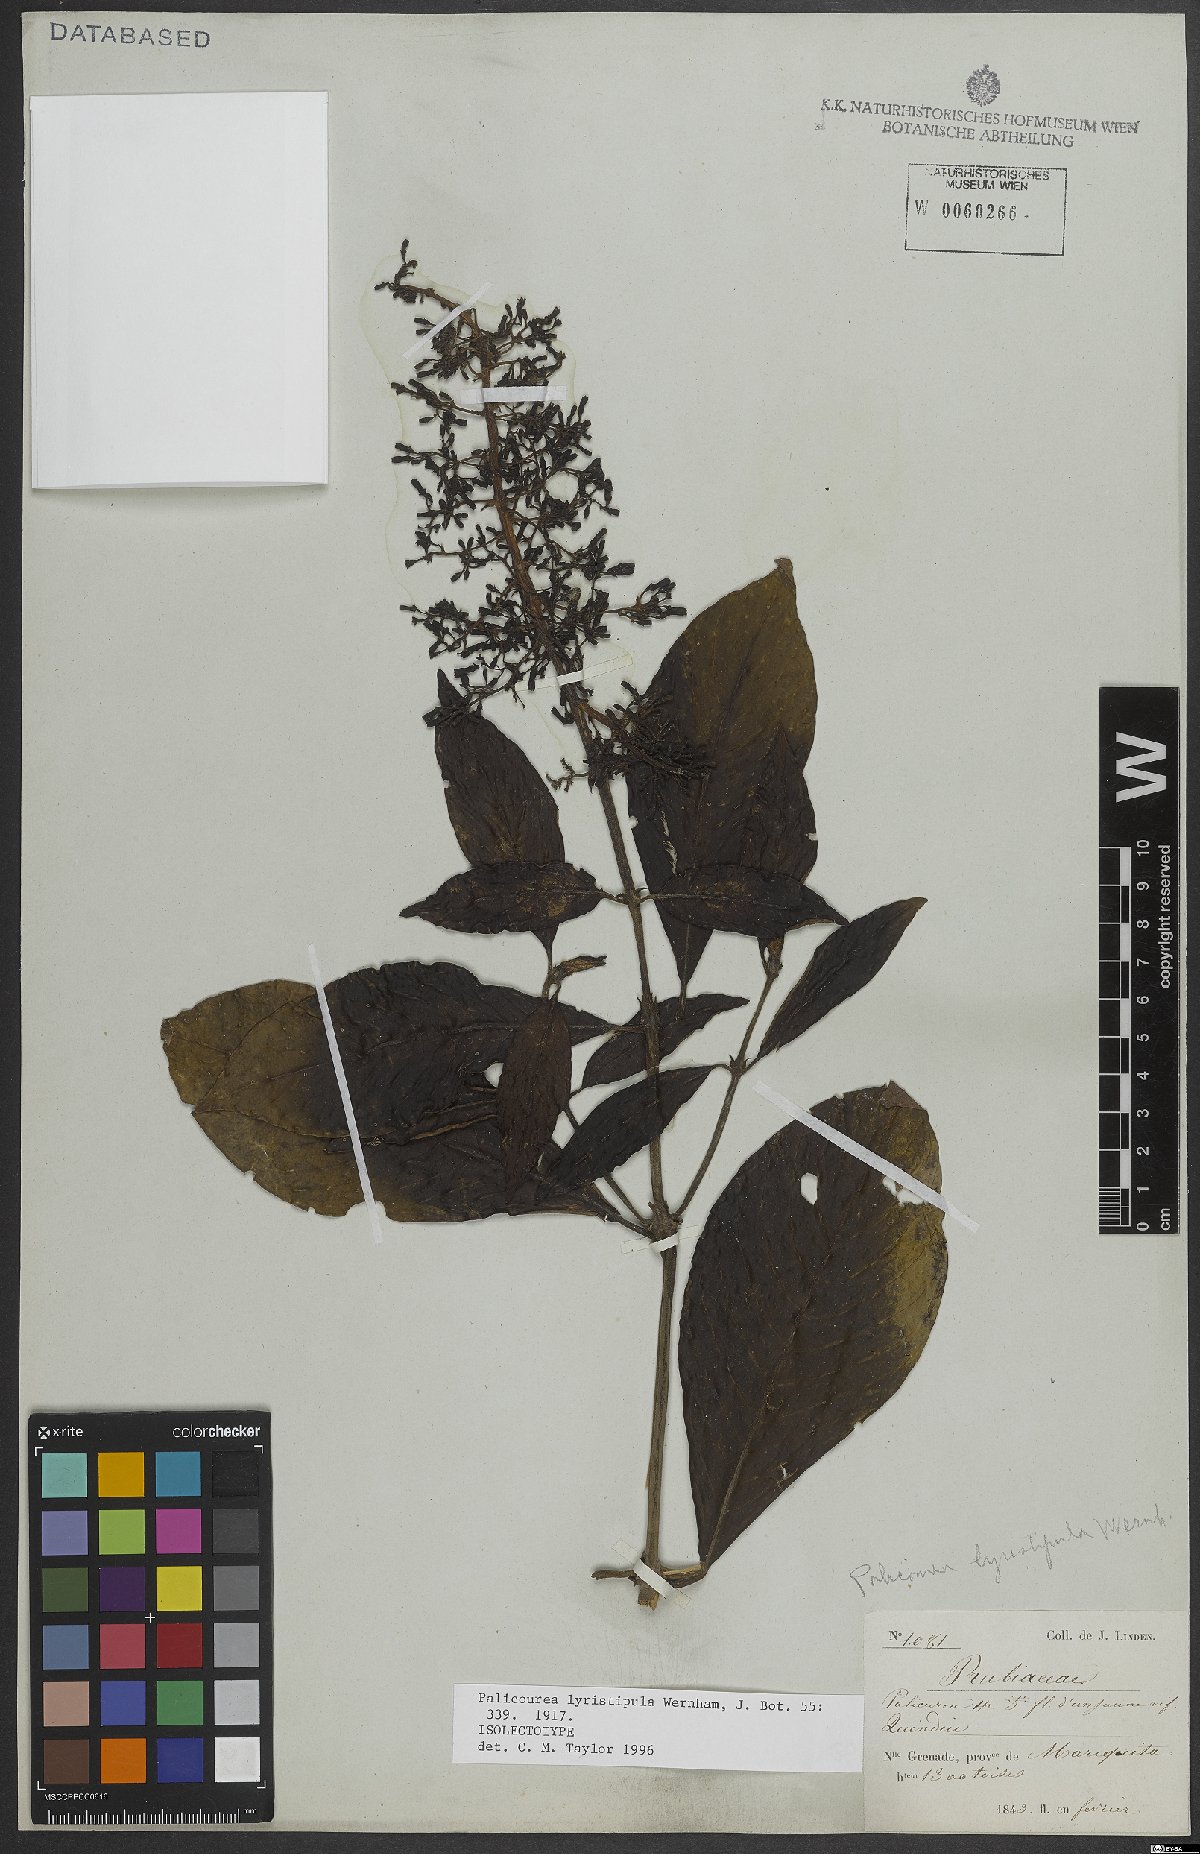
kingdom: Plantae
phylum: Tracheophyta
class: Magnoliopsida
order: Gentianales
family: Rubiaceae
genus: Palicourea
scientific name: Palicourea lyristipula
